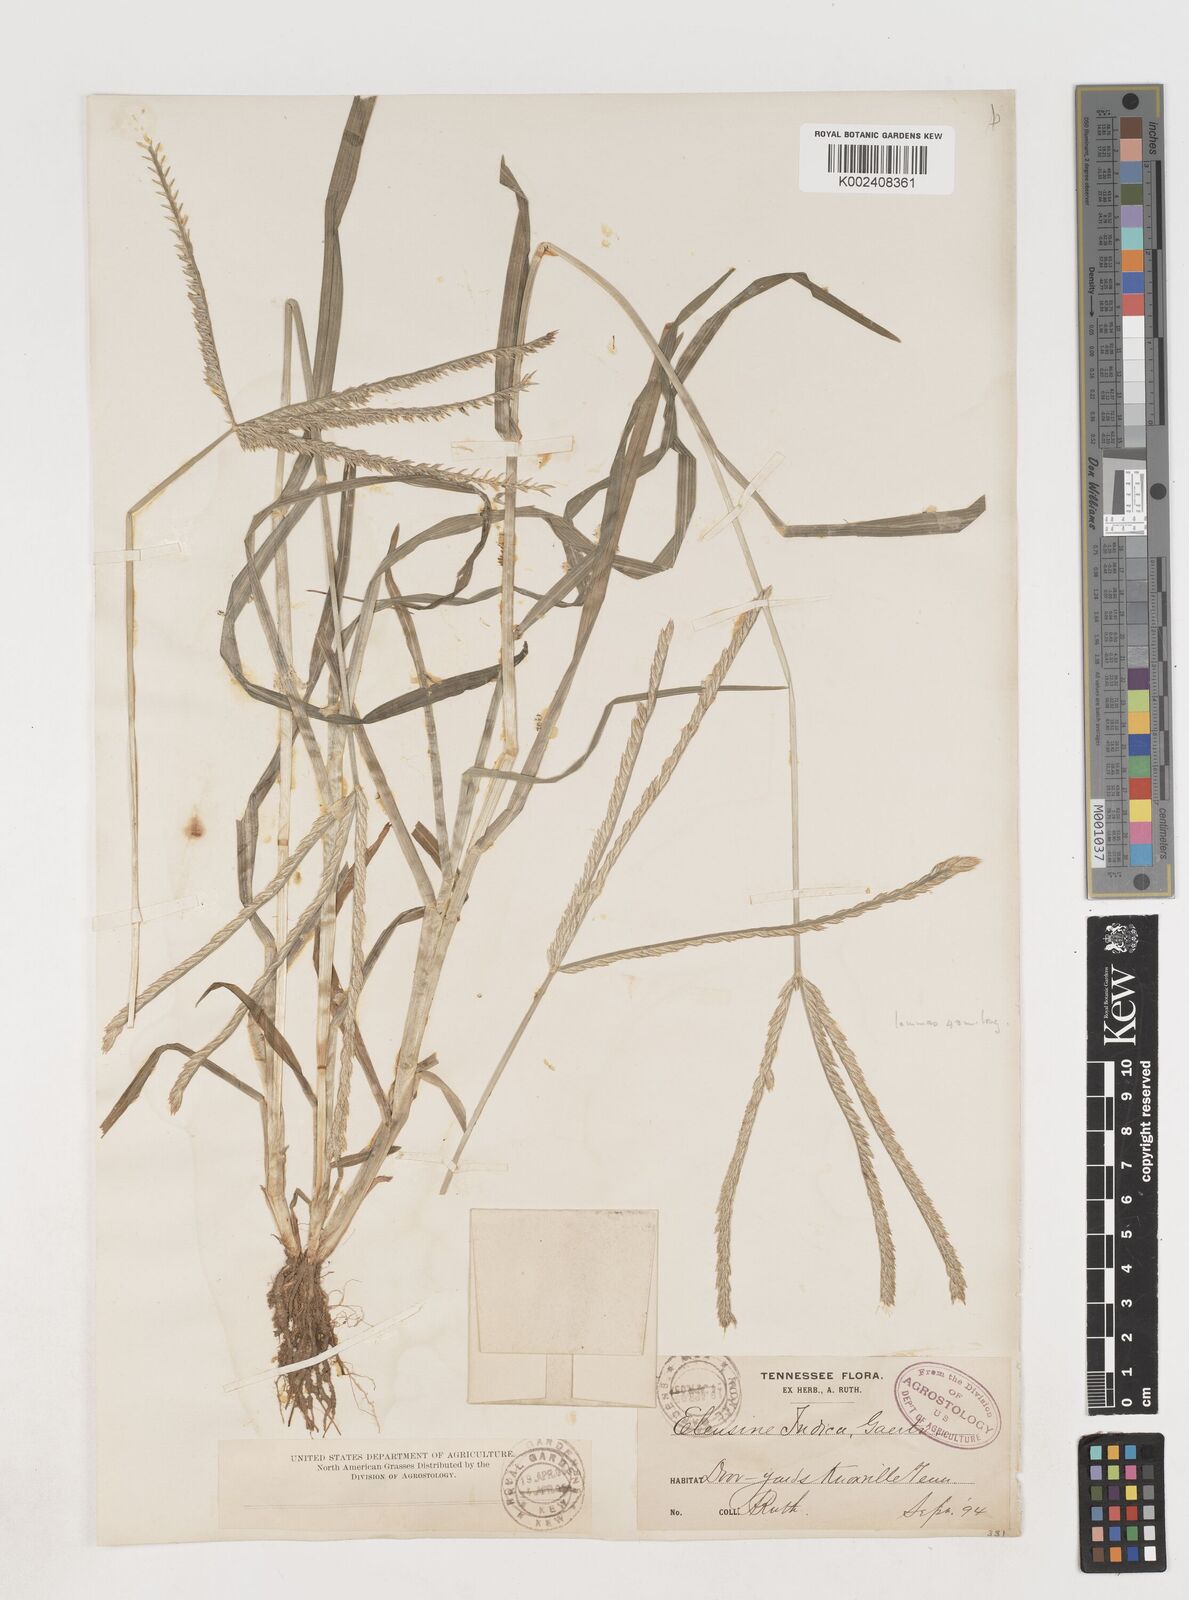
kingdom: Plantae
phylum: Tracheophyta
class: Liliopsida
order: Poales
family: Poaceae
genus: Eleusine
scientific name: Eleusine africana
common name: Wild african finger millet
